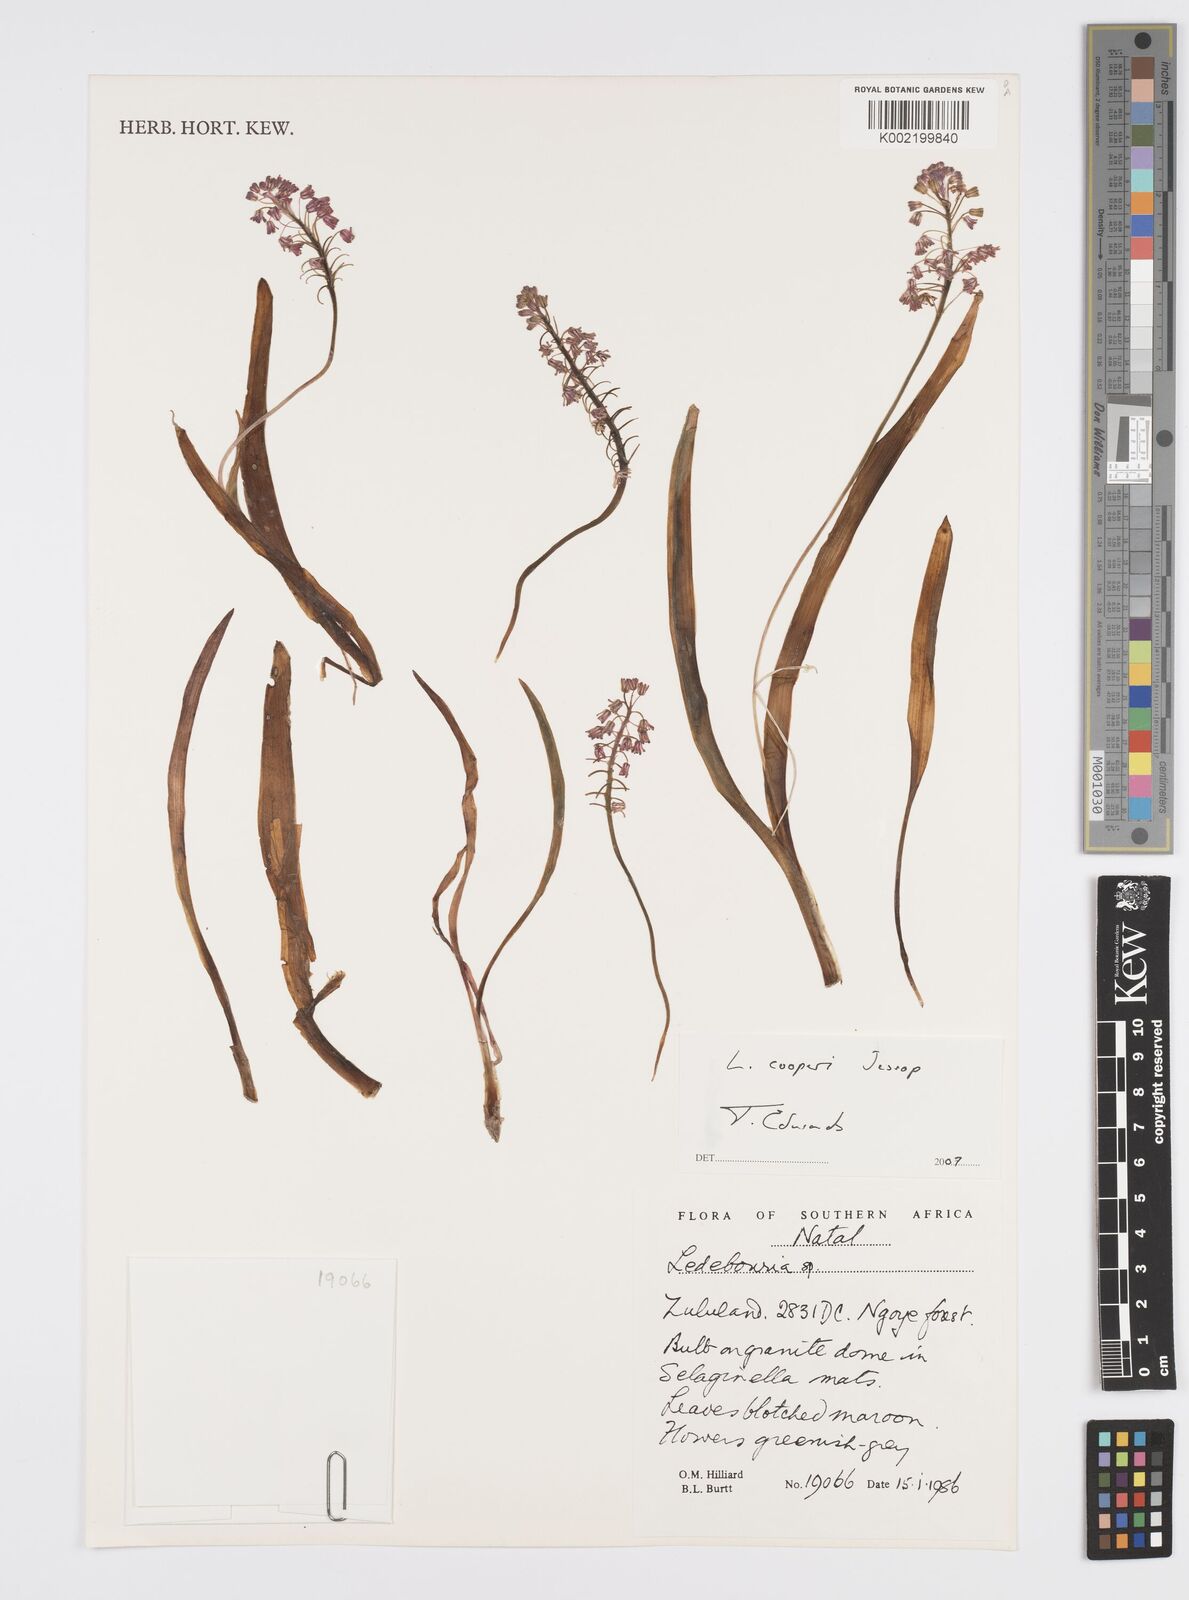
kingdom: Plantae
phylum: Tracheophyta
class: Liliopsida
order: Asparagales
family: Asparagaceae
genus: Ledebouria
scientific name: Ledebouria cooperi
